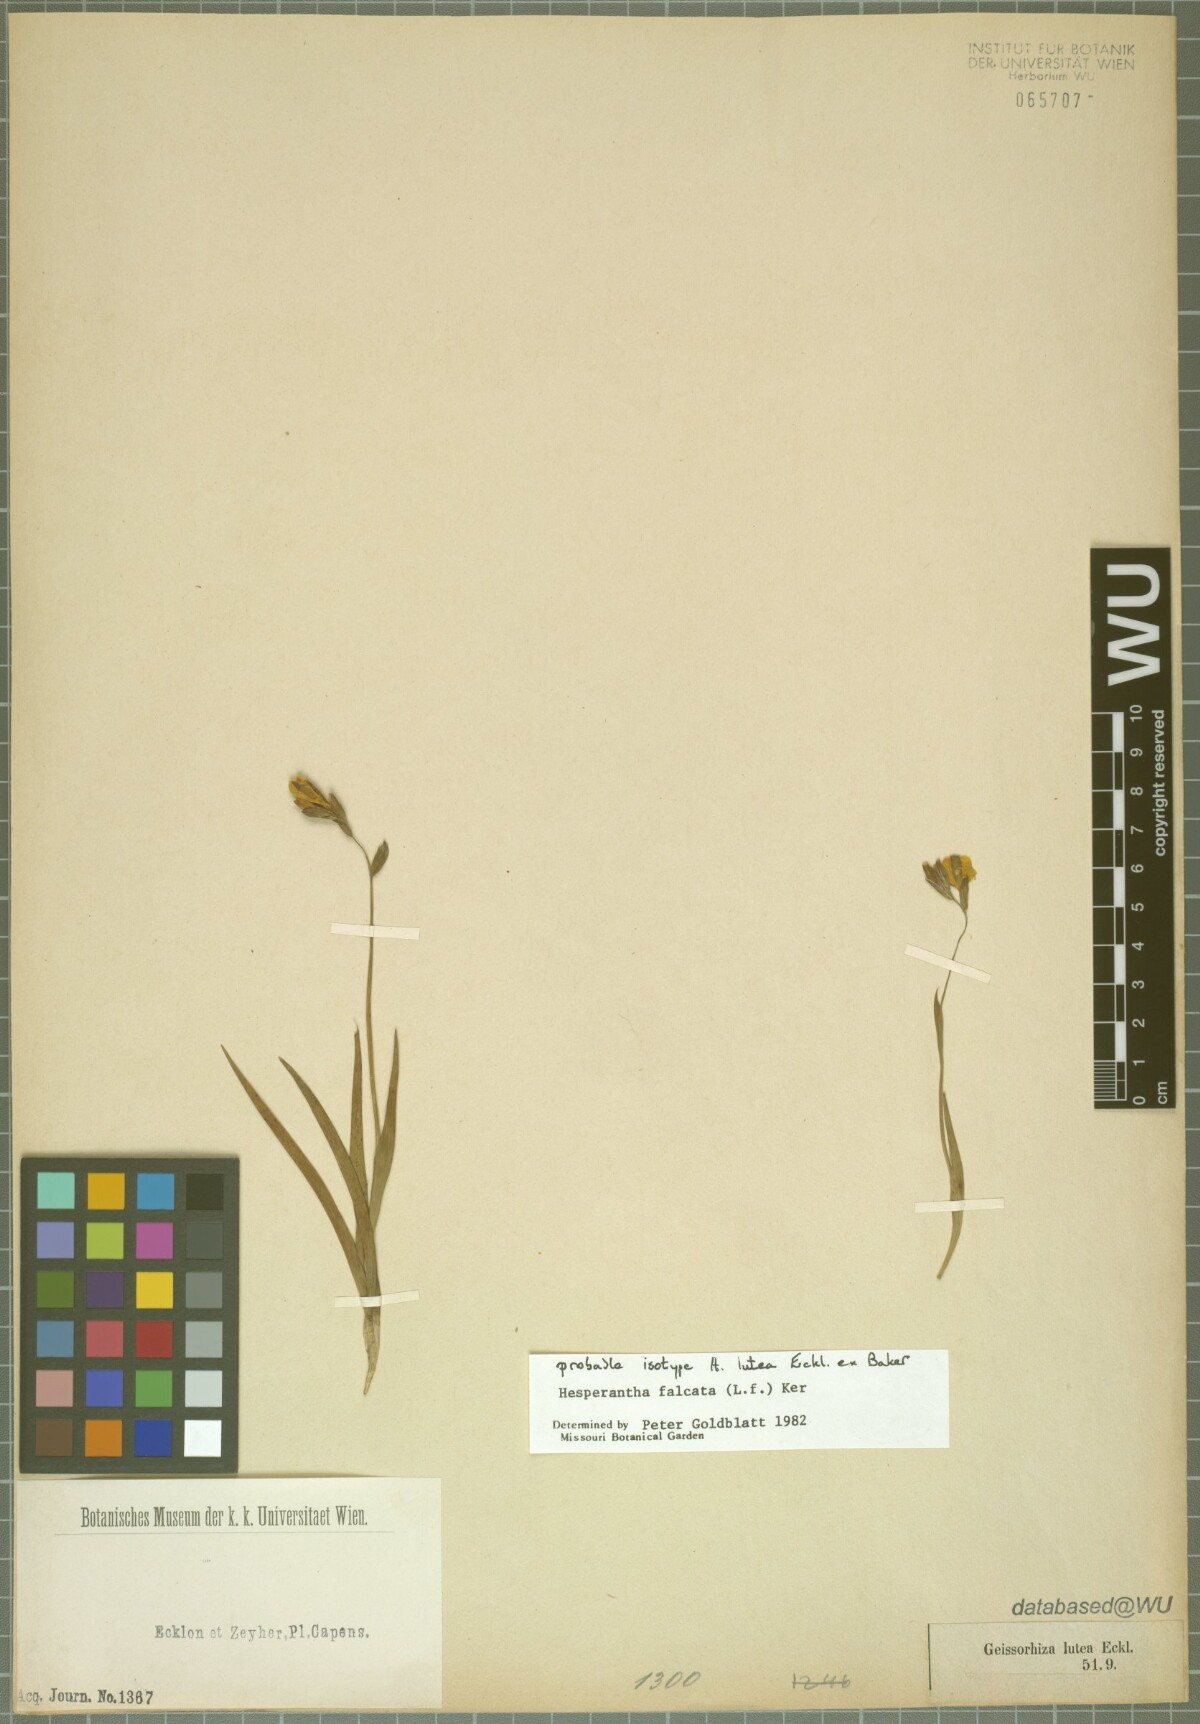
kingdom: Plantae
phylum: Tracheophyta
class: Liliopsida
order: Asparagales
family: Iridaceae
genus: Hesperantha
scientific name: Hesperantha falcata
